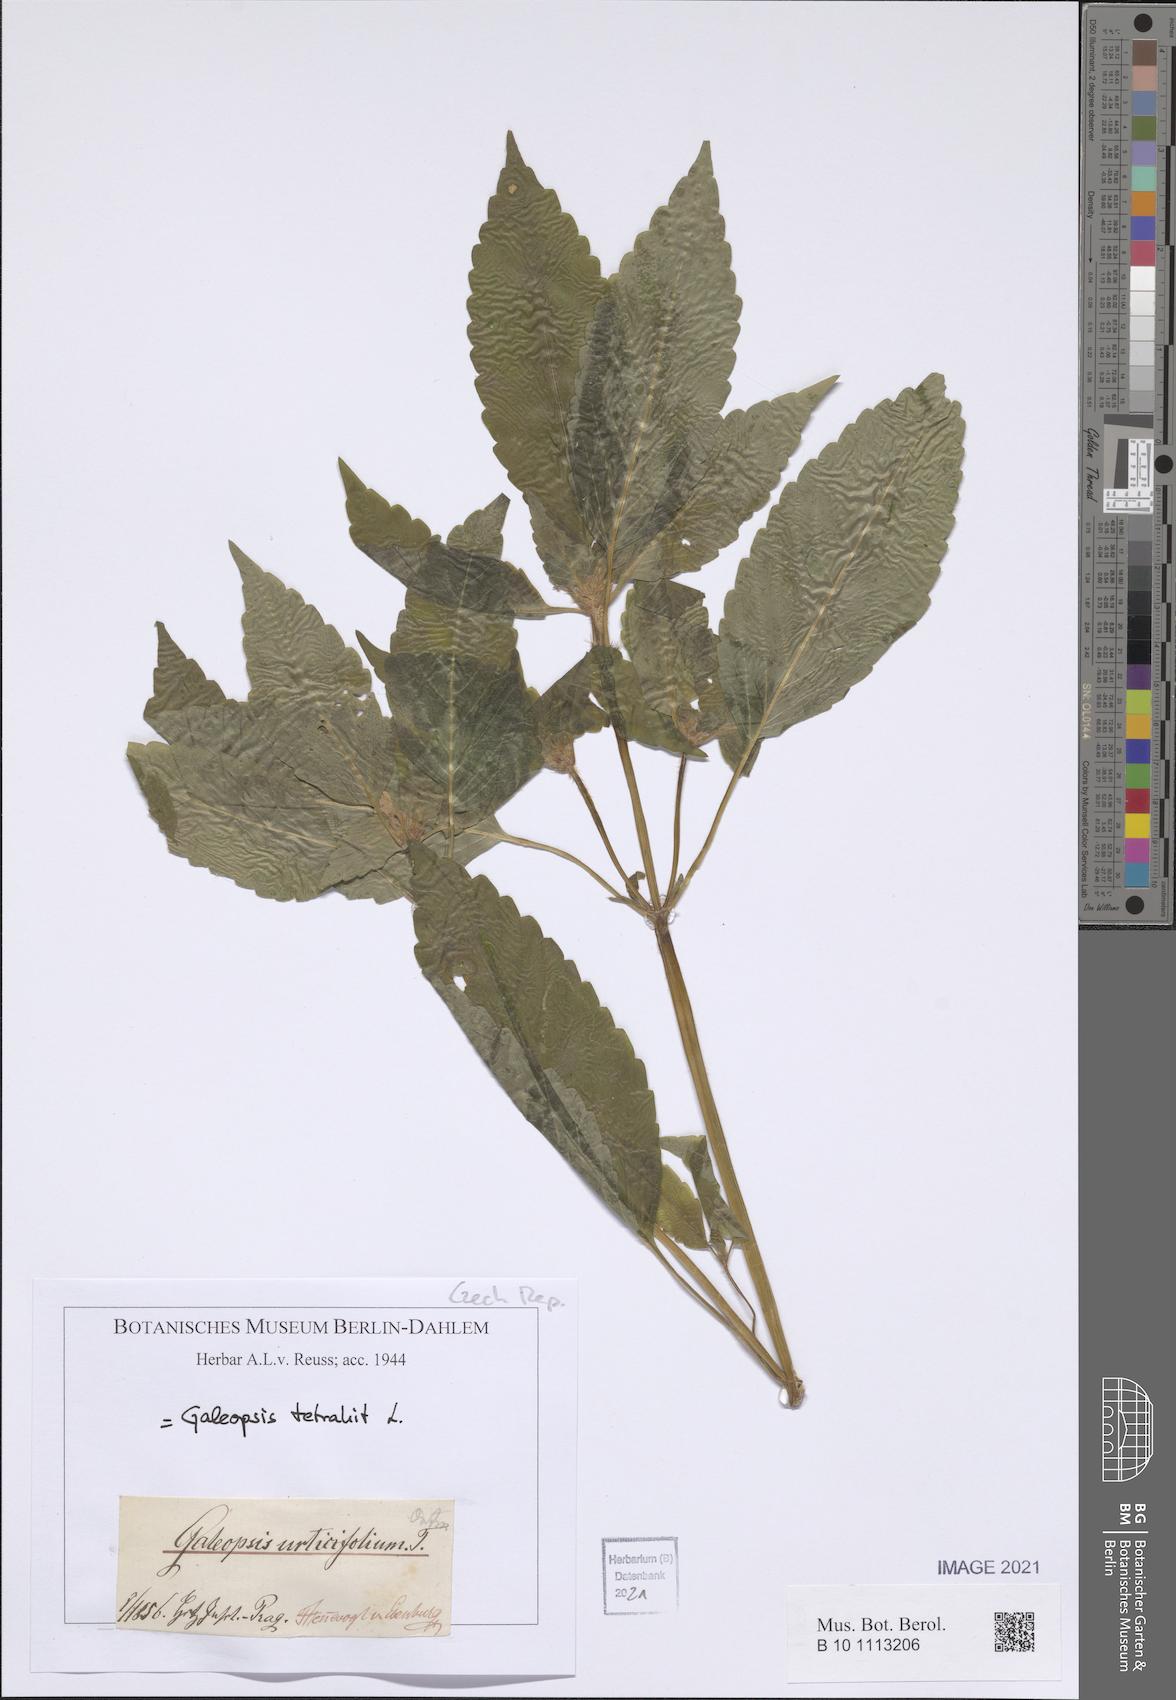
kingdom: Plantae
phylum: Tracheophyta
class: Magnoliopsida
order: Lamiales
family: Lamiaceae
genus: Galeopsis
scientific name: Galeopsis tetrahit
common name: Common hemp-nettle
